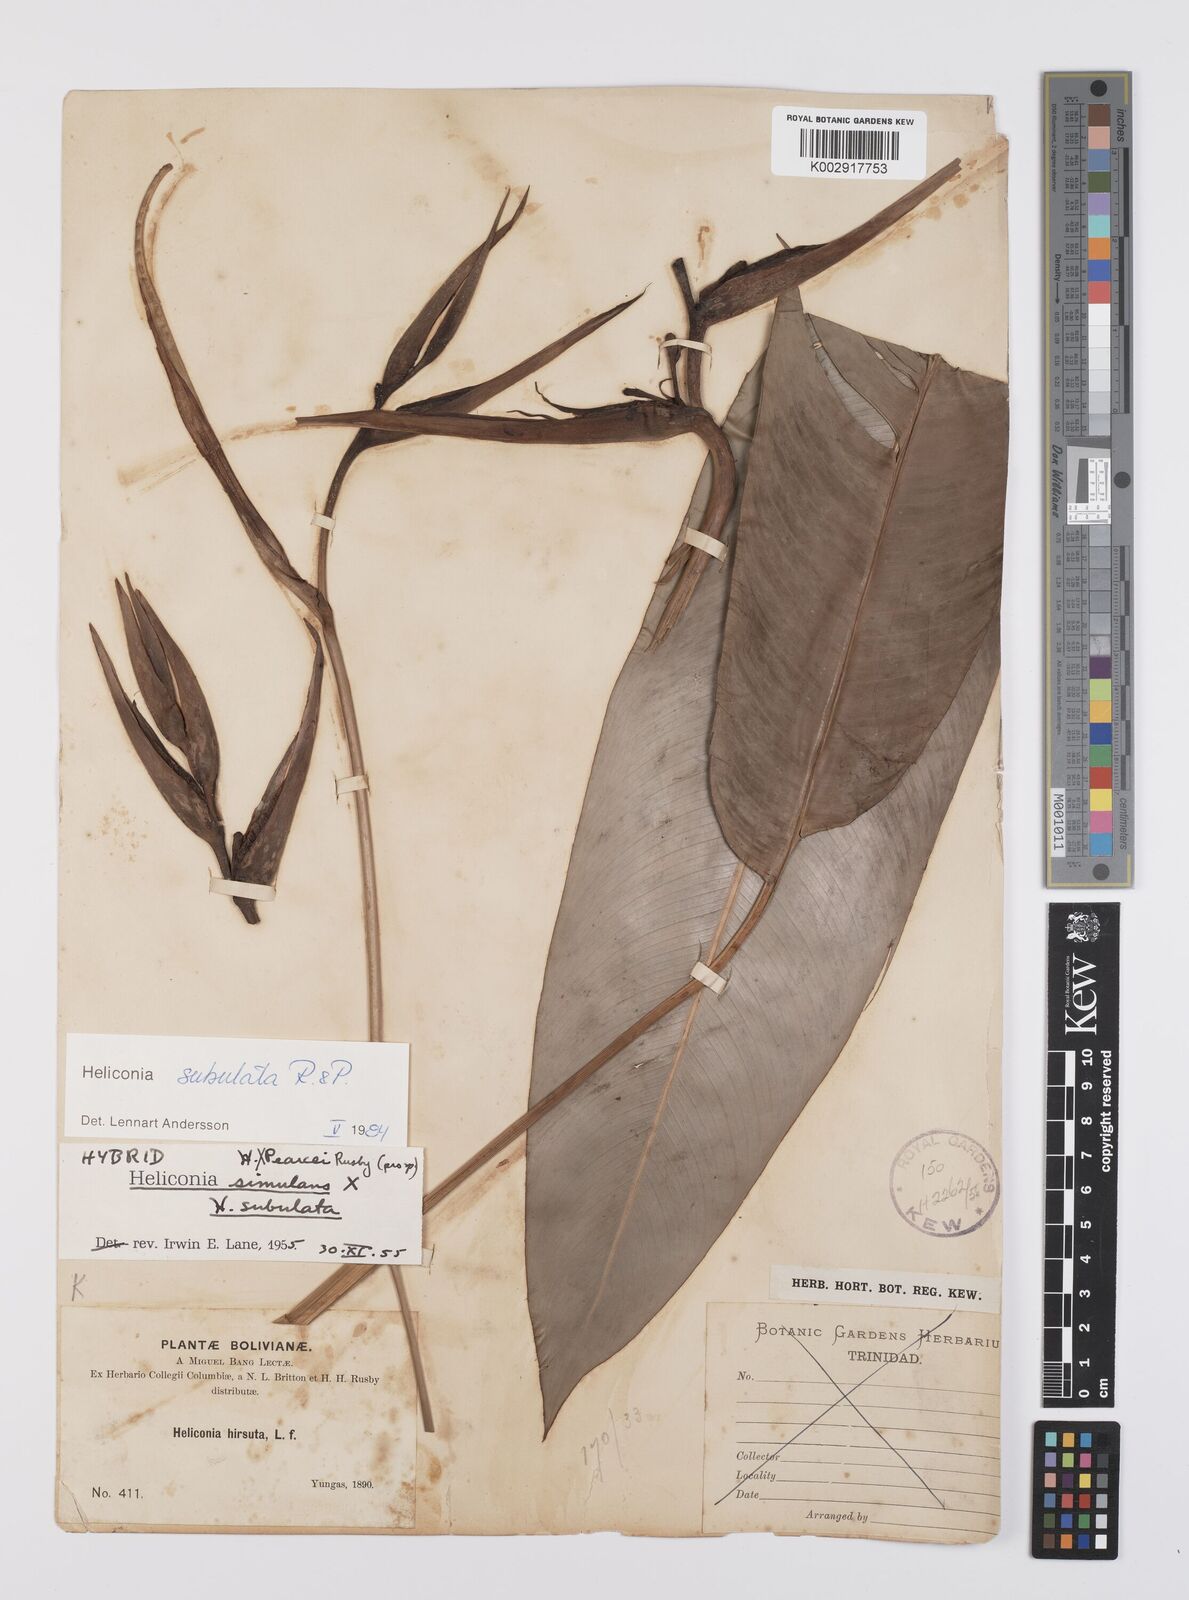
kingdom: Plantae
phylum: Tracheophyta
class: Liliopsida
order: Zingiberales
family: Heliconiaceae
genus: Heliconia
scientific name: Heliconia subulata
